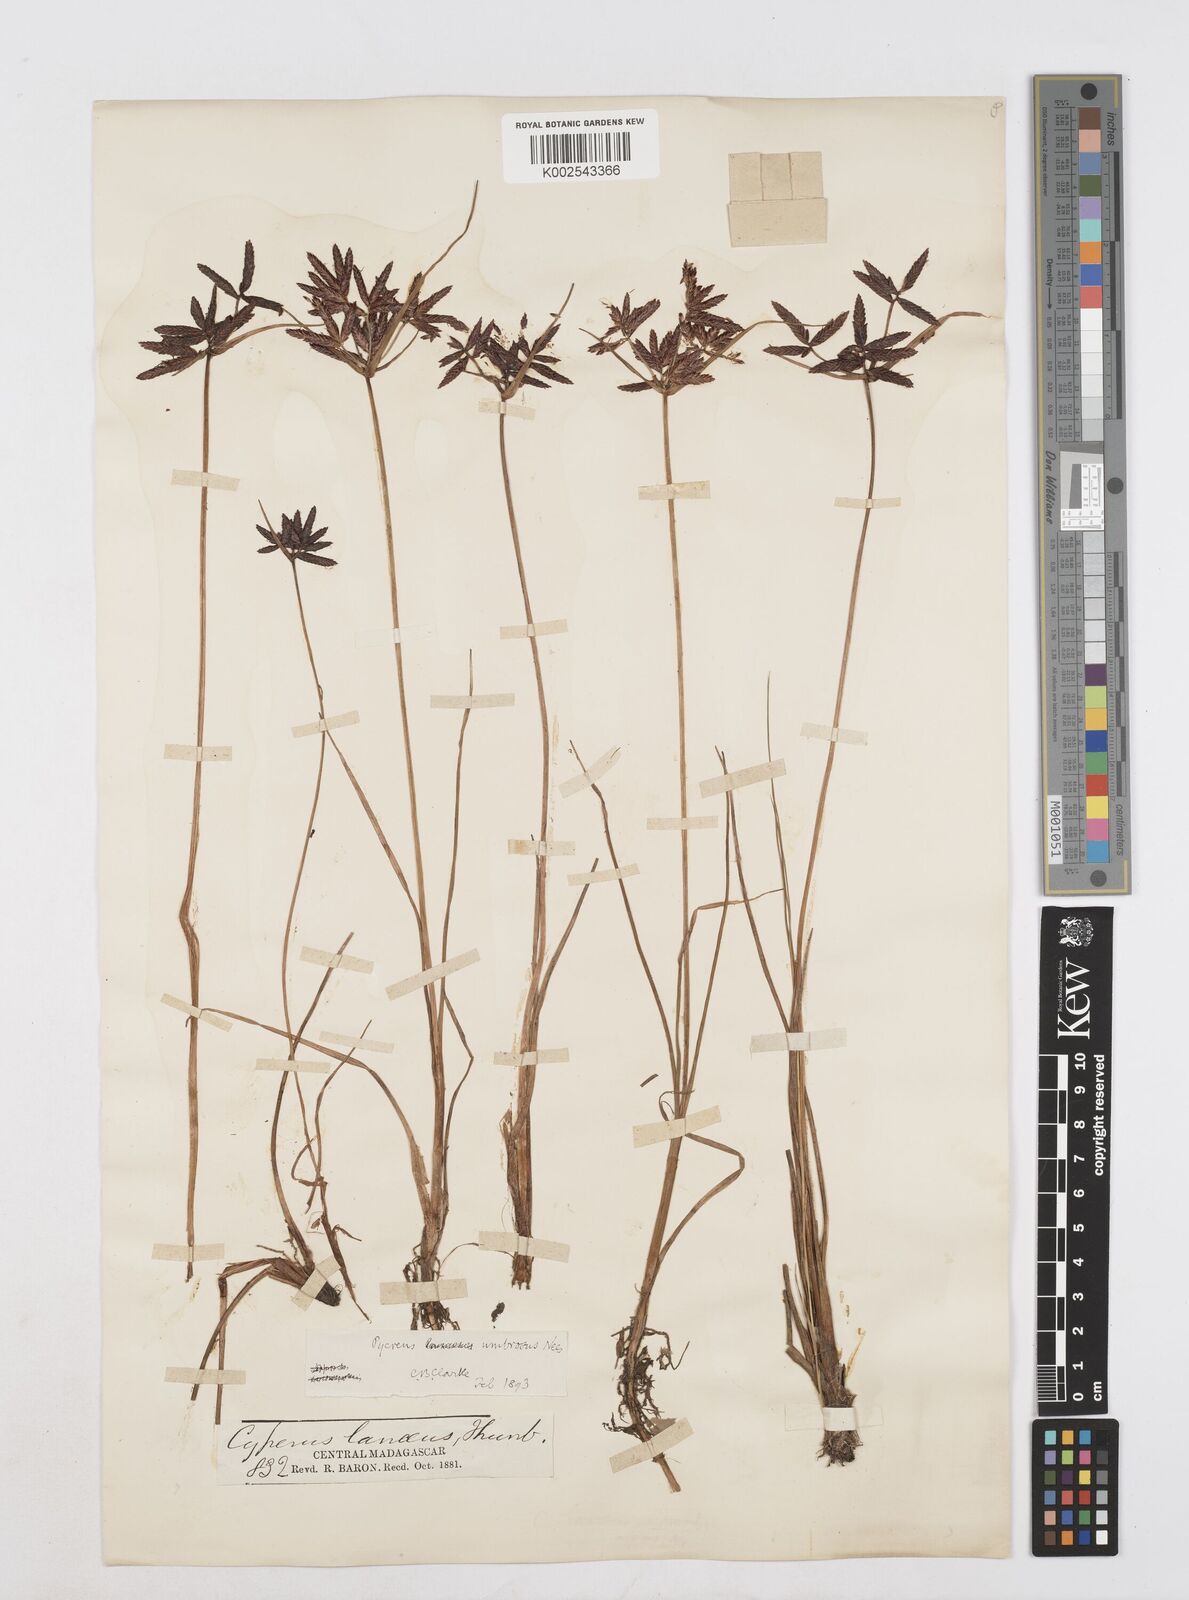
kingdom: Plantae
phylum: Tracheophyta
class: Liliopsida
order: Poales
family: Cyperaceae
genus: Cyperus
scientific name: Cyperus nitidus
